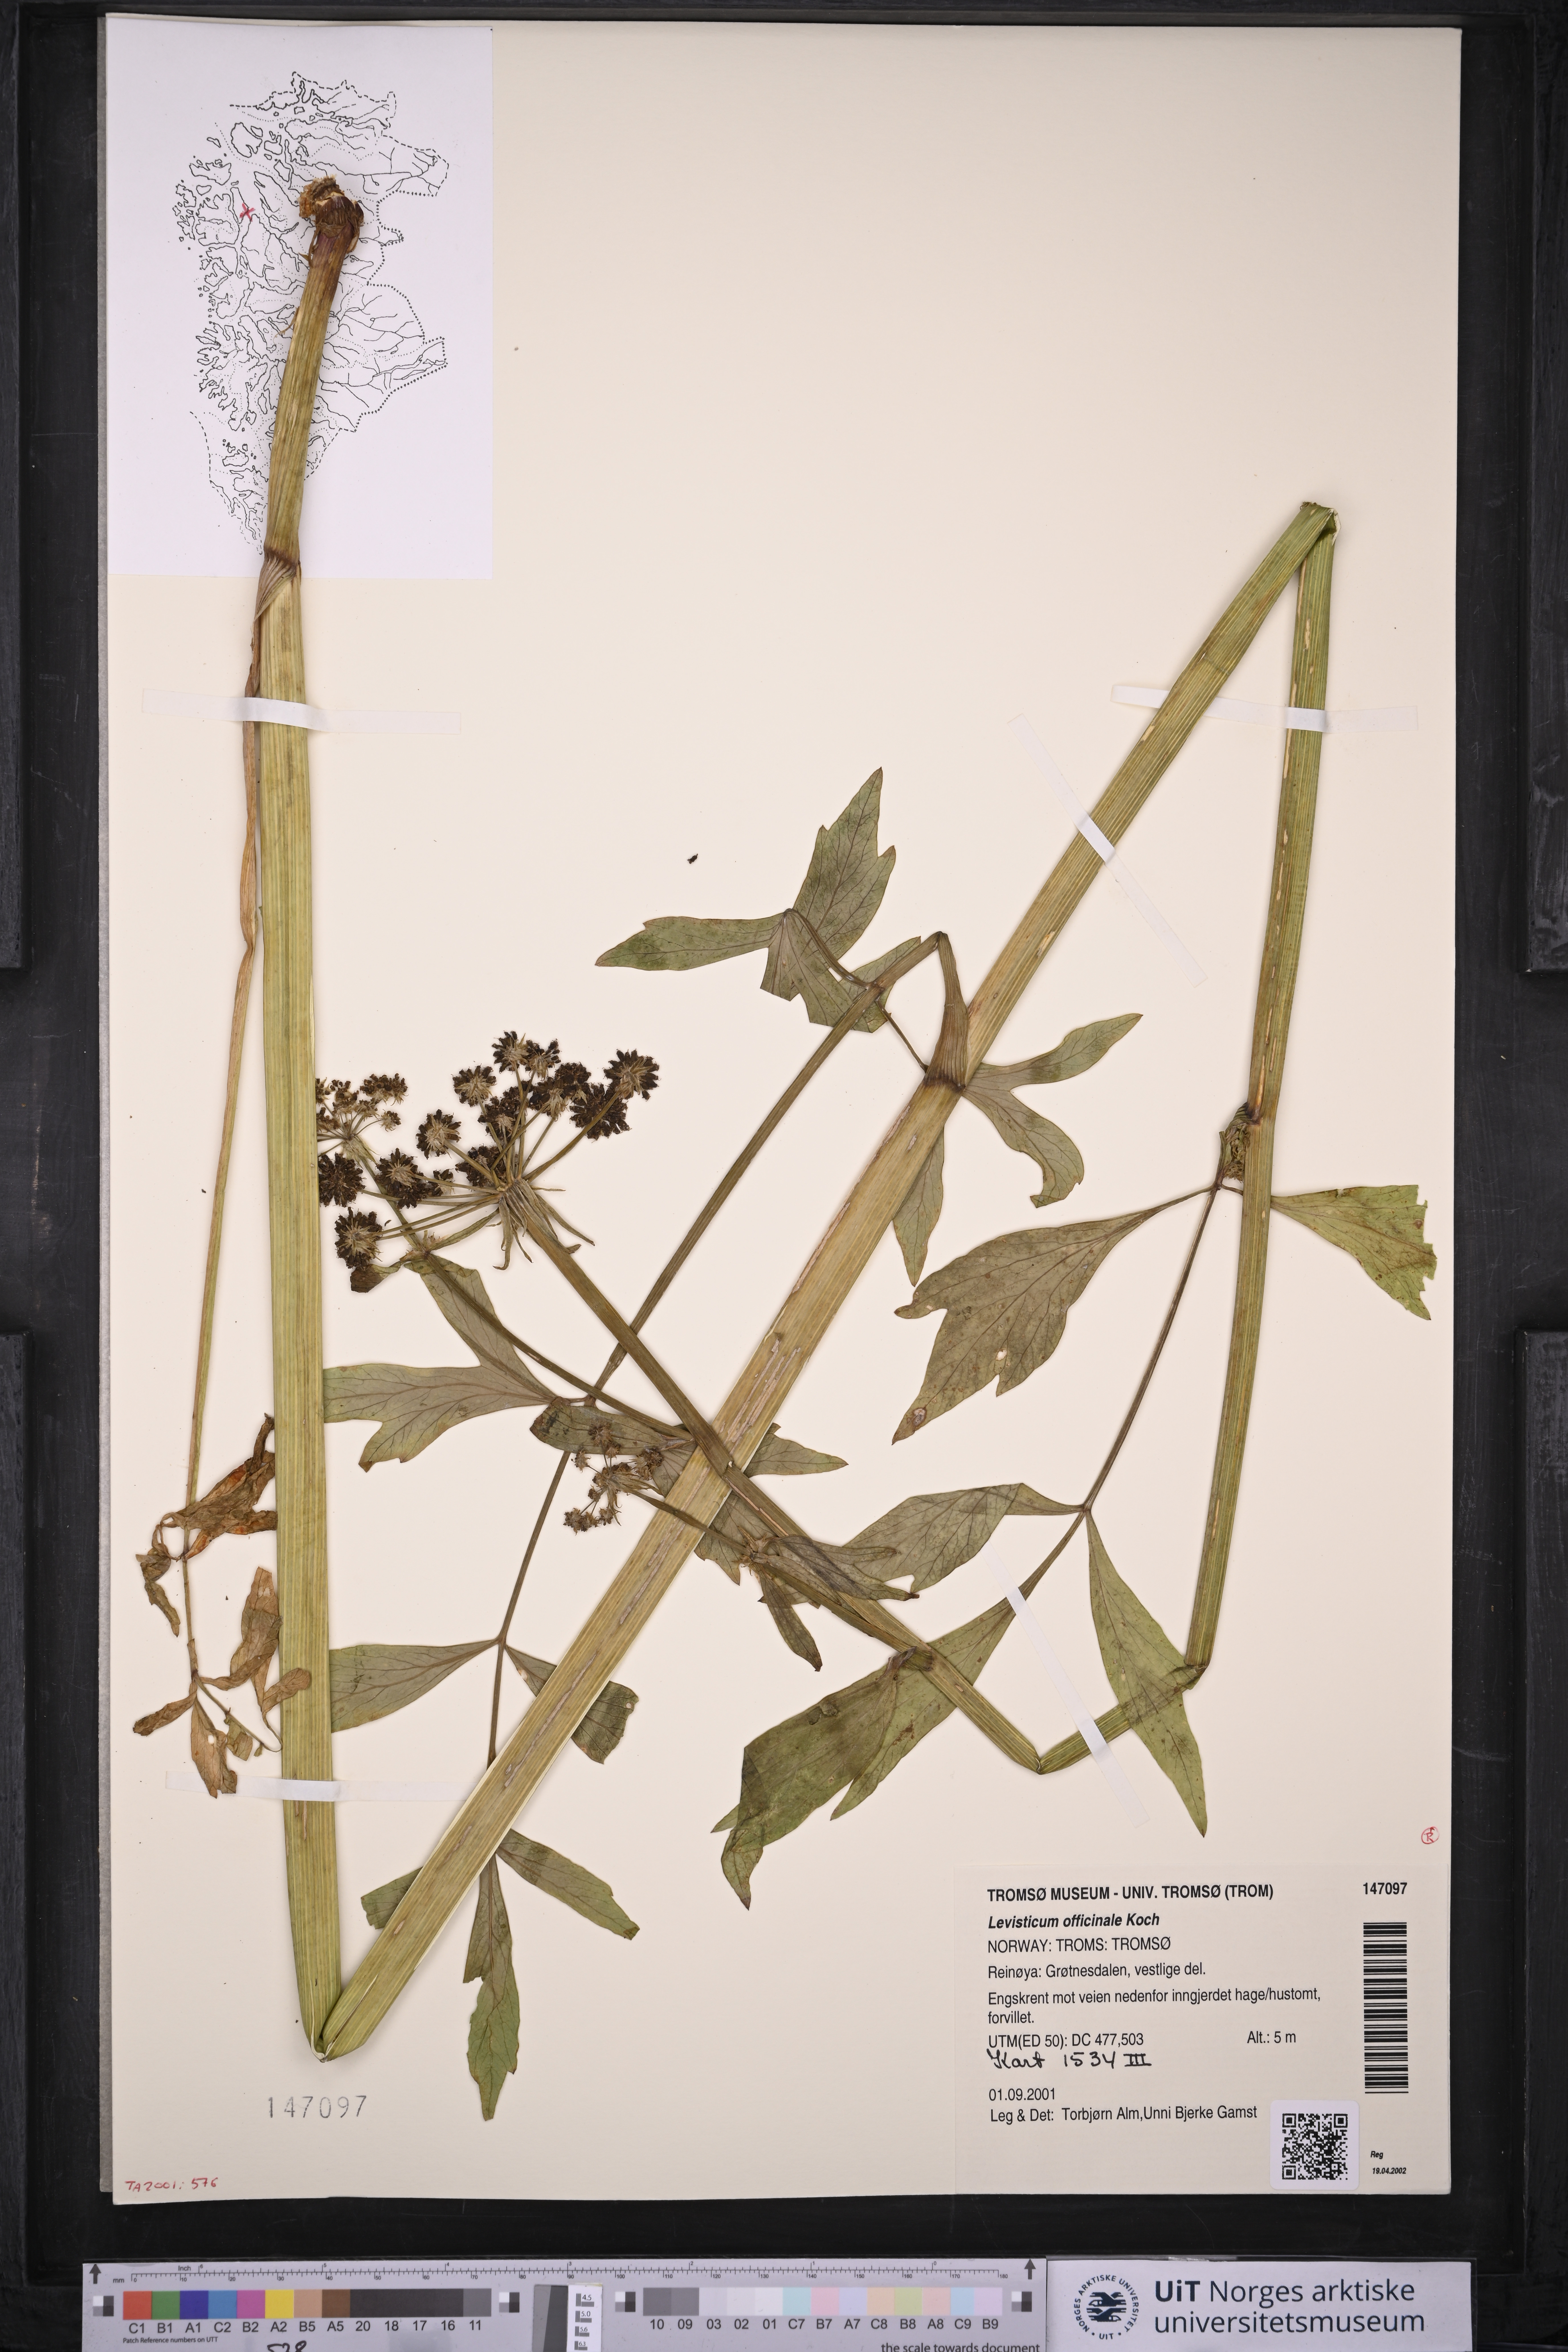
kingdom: Plantae
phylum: Tracheophyta
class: Magnoliopsida
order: Apiales
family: Apiaceae
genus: Levisticum
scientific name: Levisticum officinale
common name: Lovage
